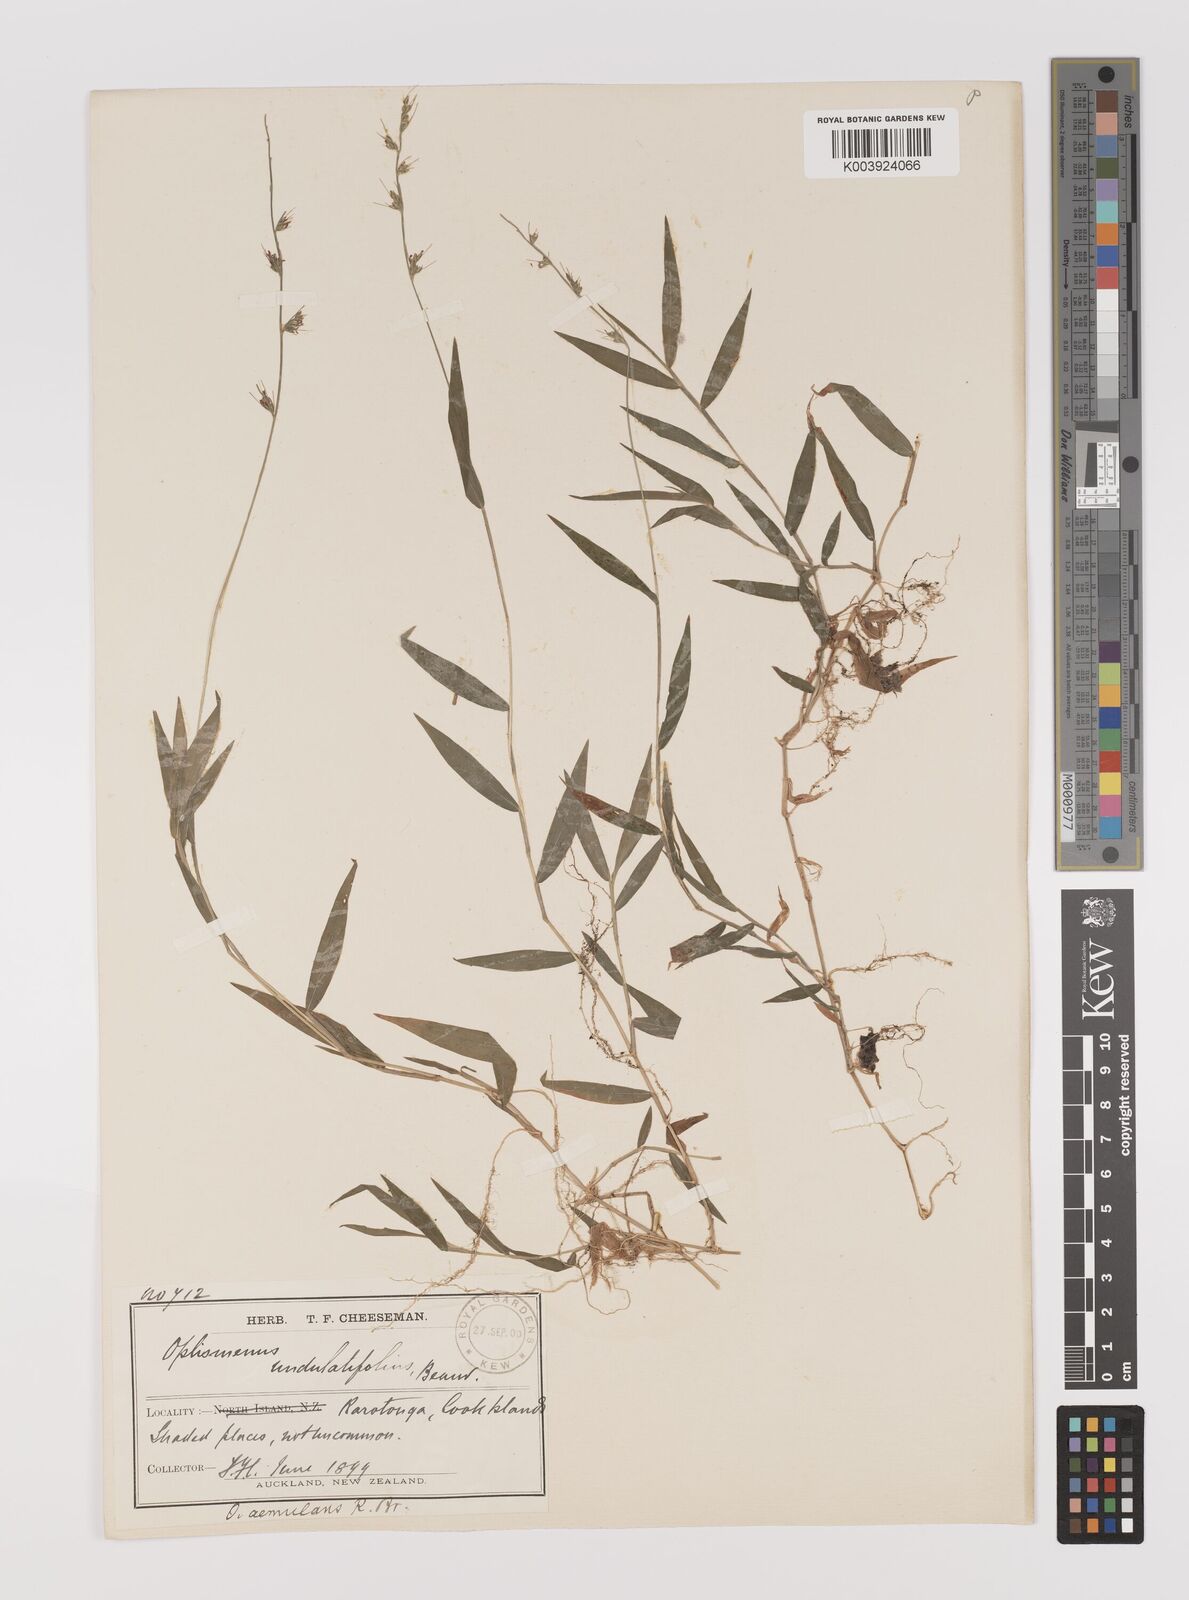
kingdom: Plantae
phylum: Tracheophyta
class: Liliopsida
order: Poales
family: Poaceae
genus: Oplismenus
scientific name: Oplismenus hirtellus
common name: Basketgrass
